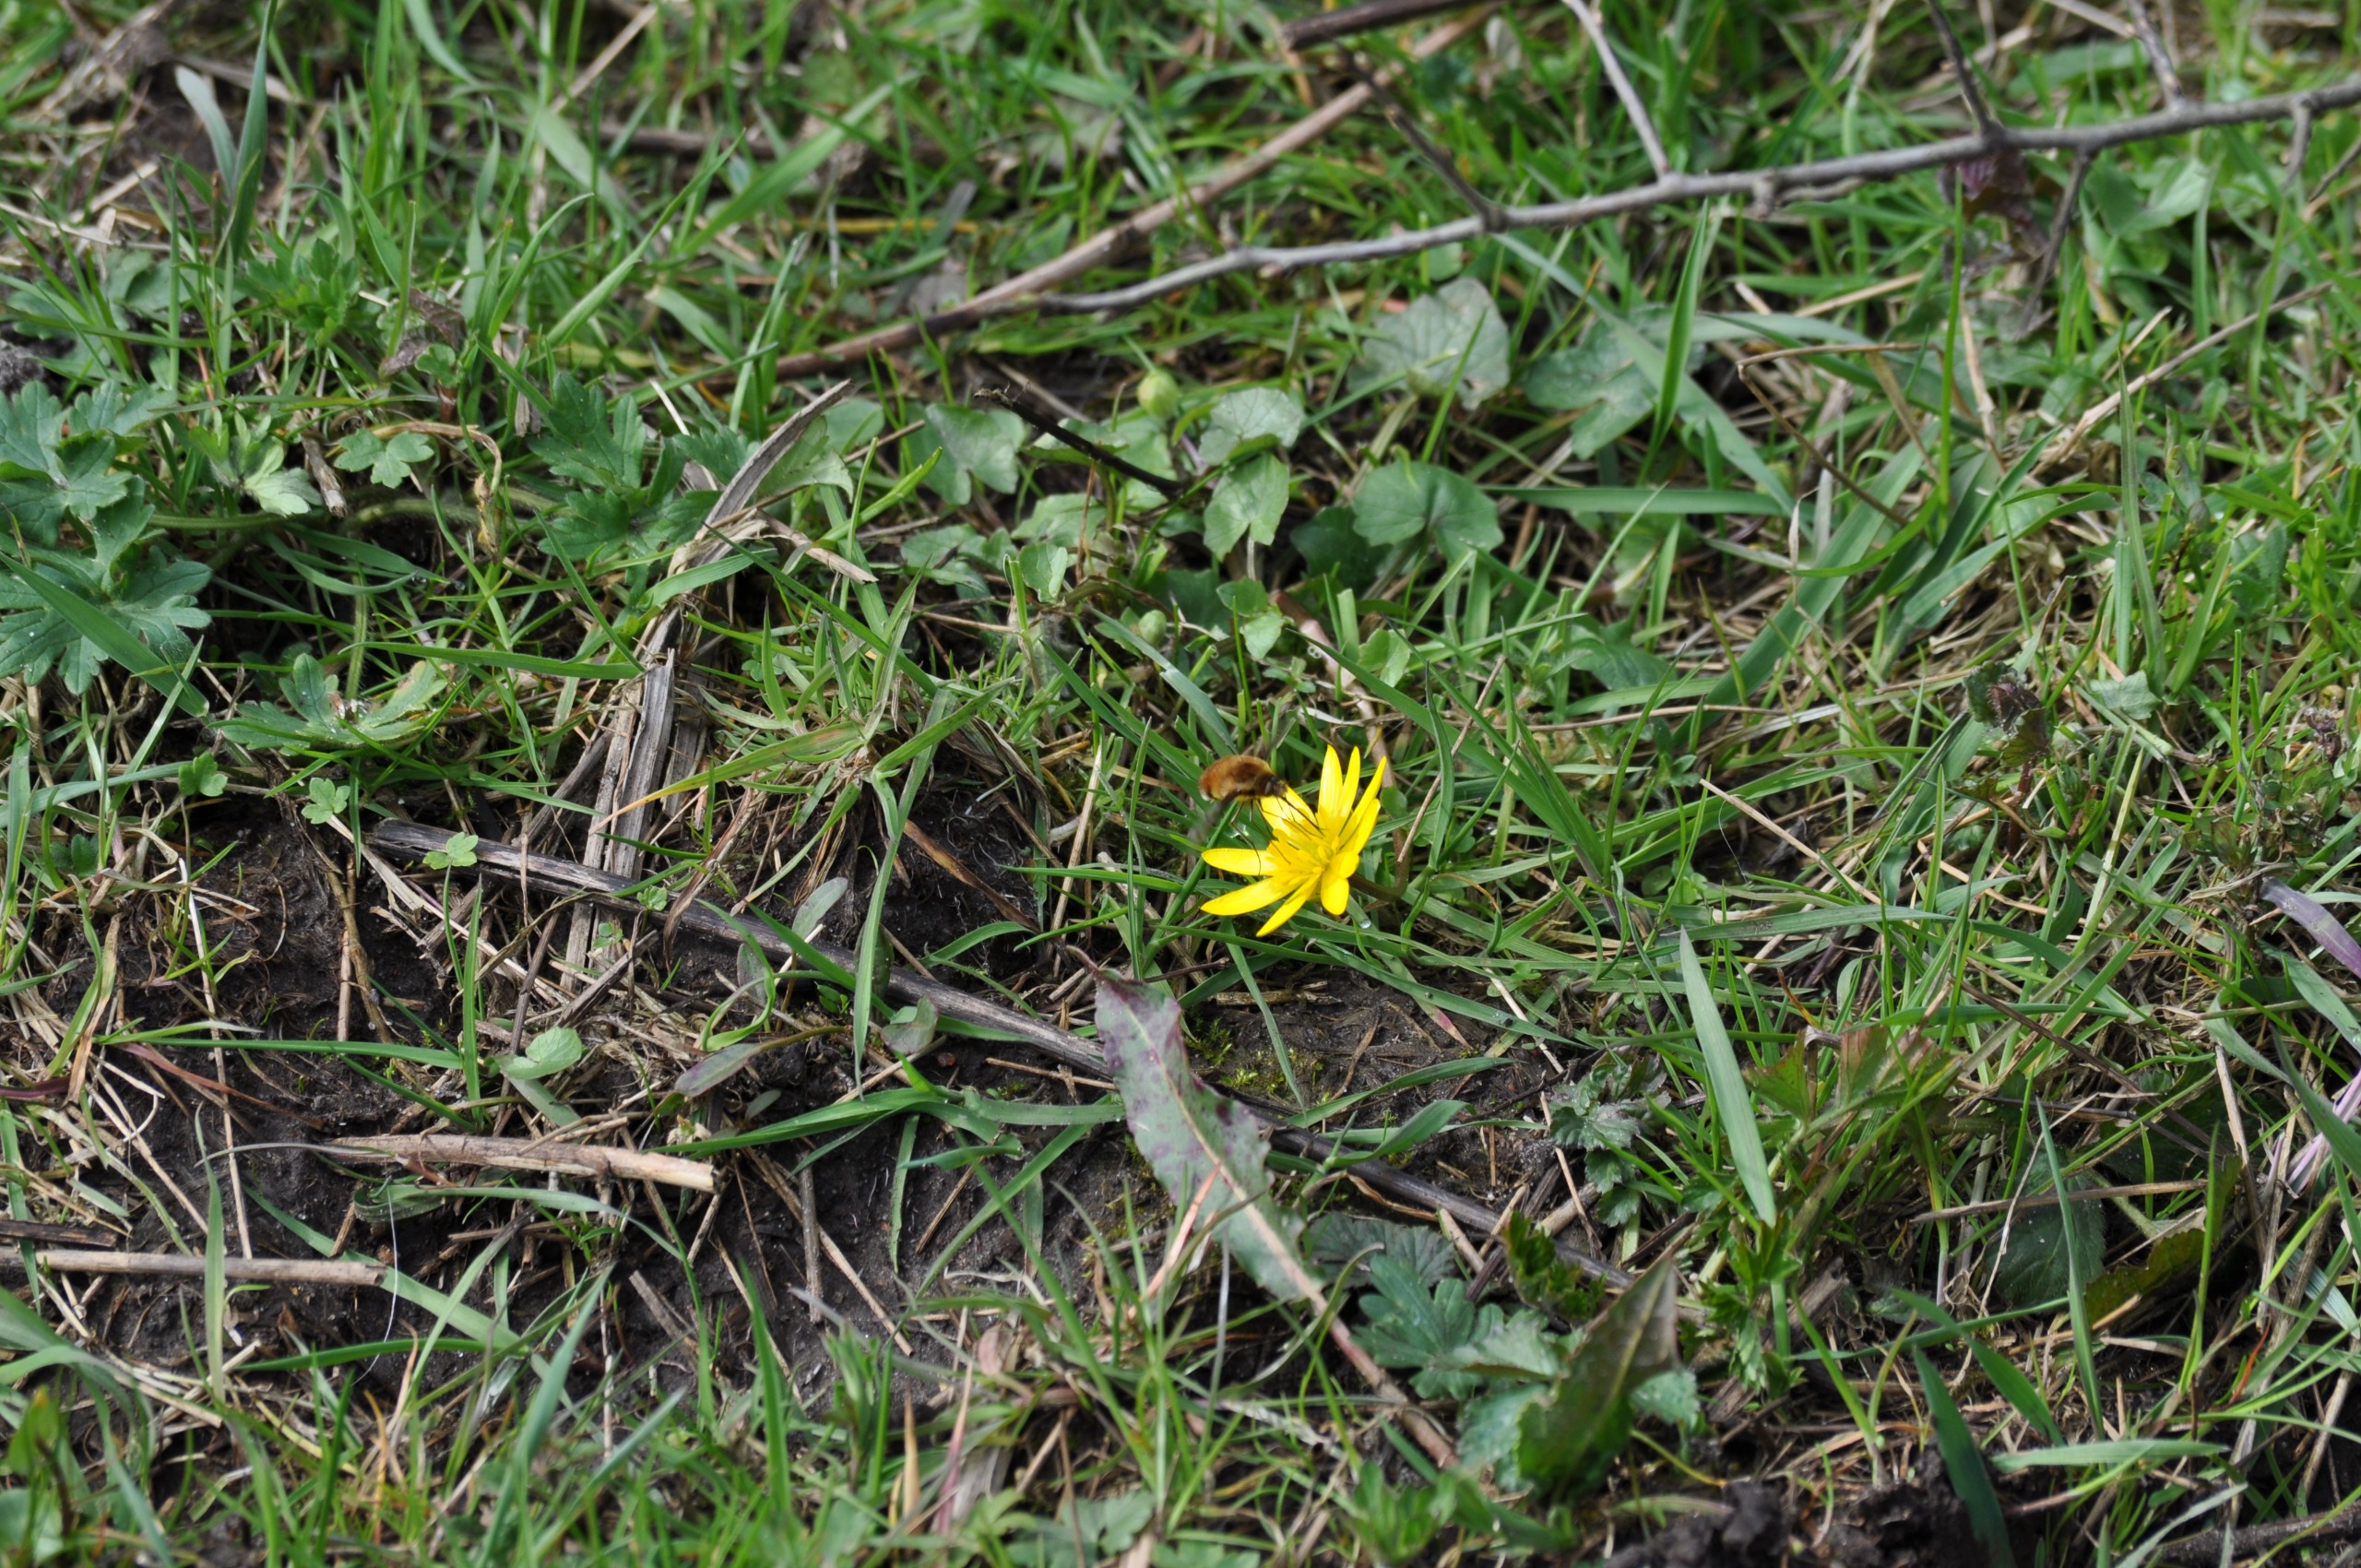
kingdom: Animalia
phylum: Arthropoda
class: Insecta
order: Diptera
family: Bombyliidae
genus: Bombylius
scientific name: Bombylius major
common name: Stor humleflue
